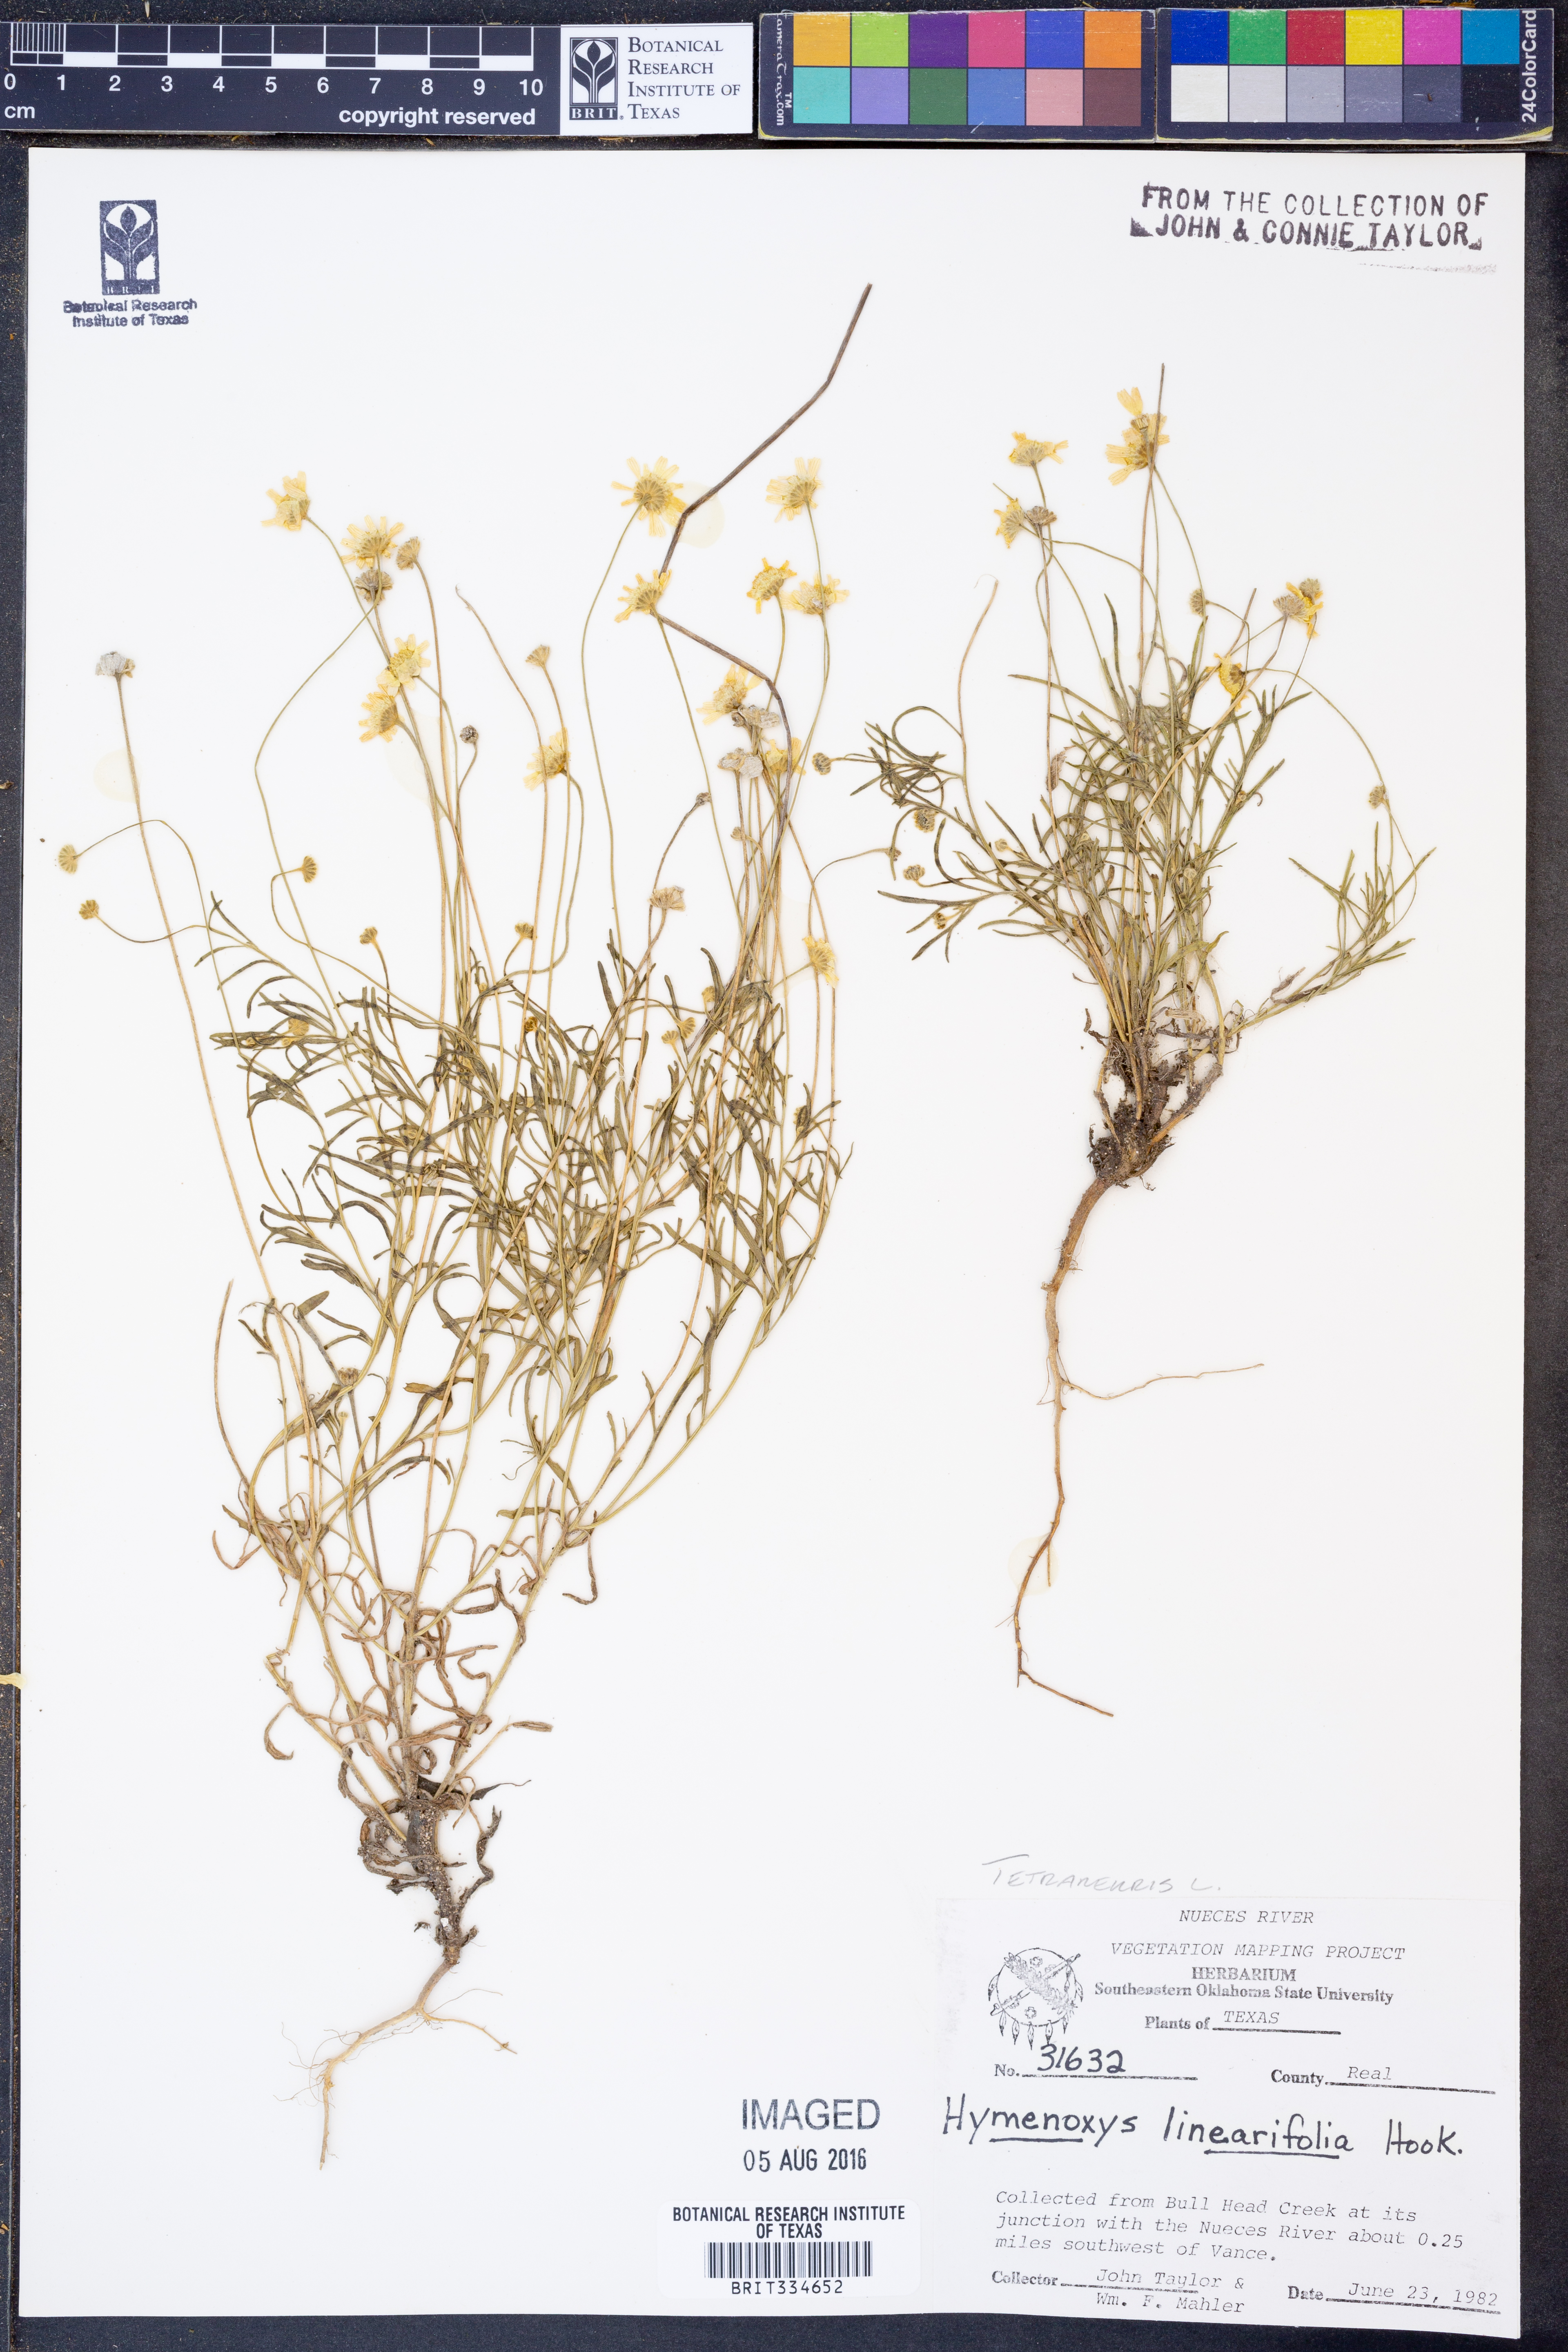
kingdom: Plantae
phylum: Tracheophyta
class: Magnoliopsida
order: Asterales
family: Asteraceae
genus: Tetraneuris
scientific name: Tetraneuris linearifolia
